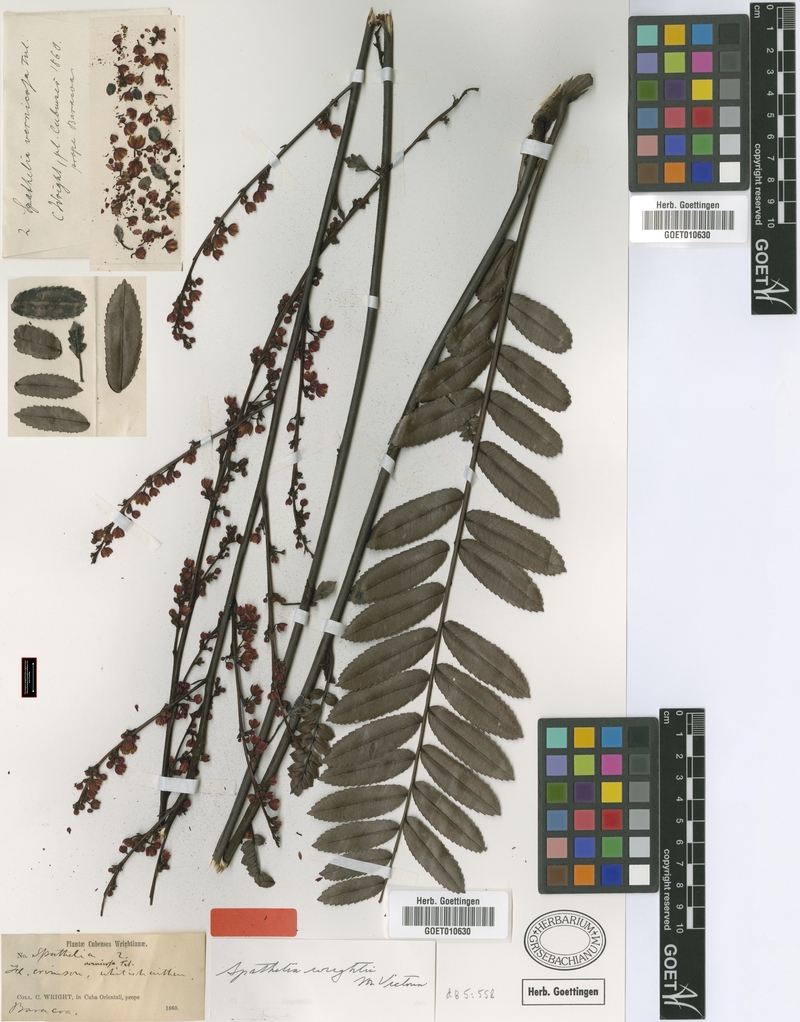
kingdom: Plantae
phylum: Tracheophyta
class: Magnoliopsida
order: Sapindales
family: Rutaceae
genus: Spathelia
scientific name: Spathelia wrightii
